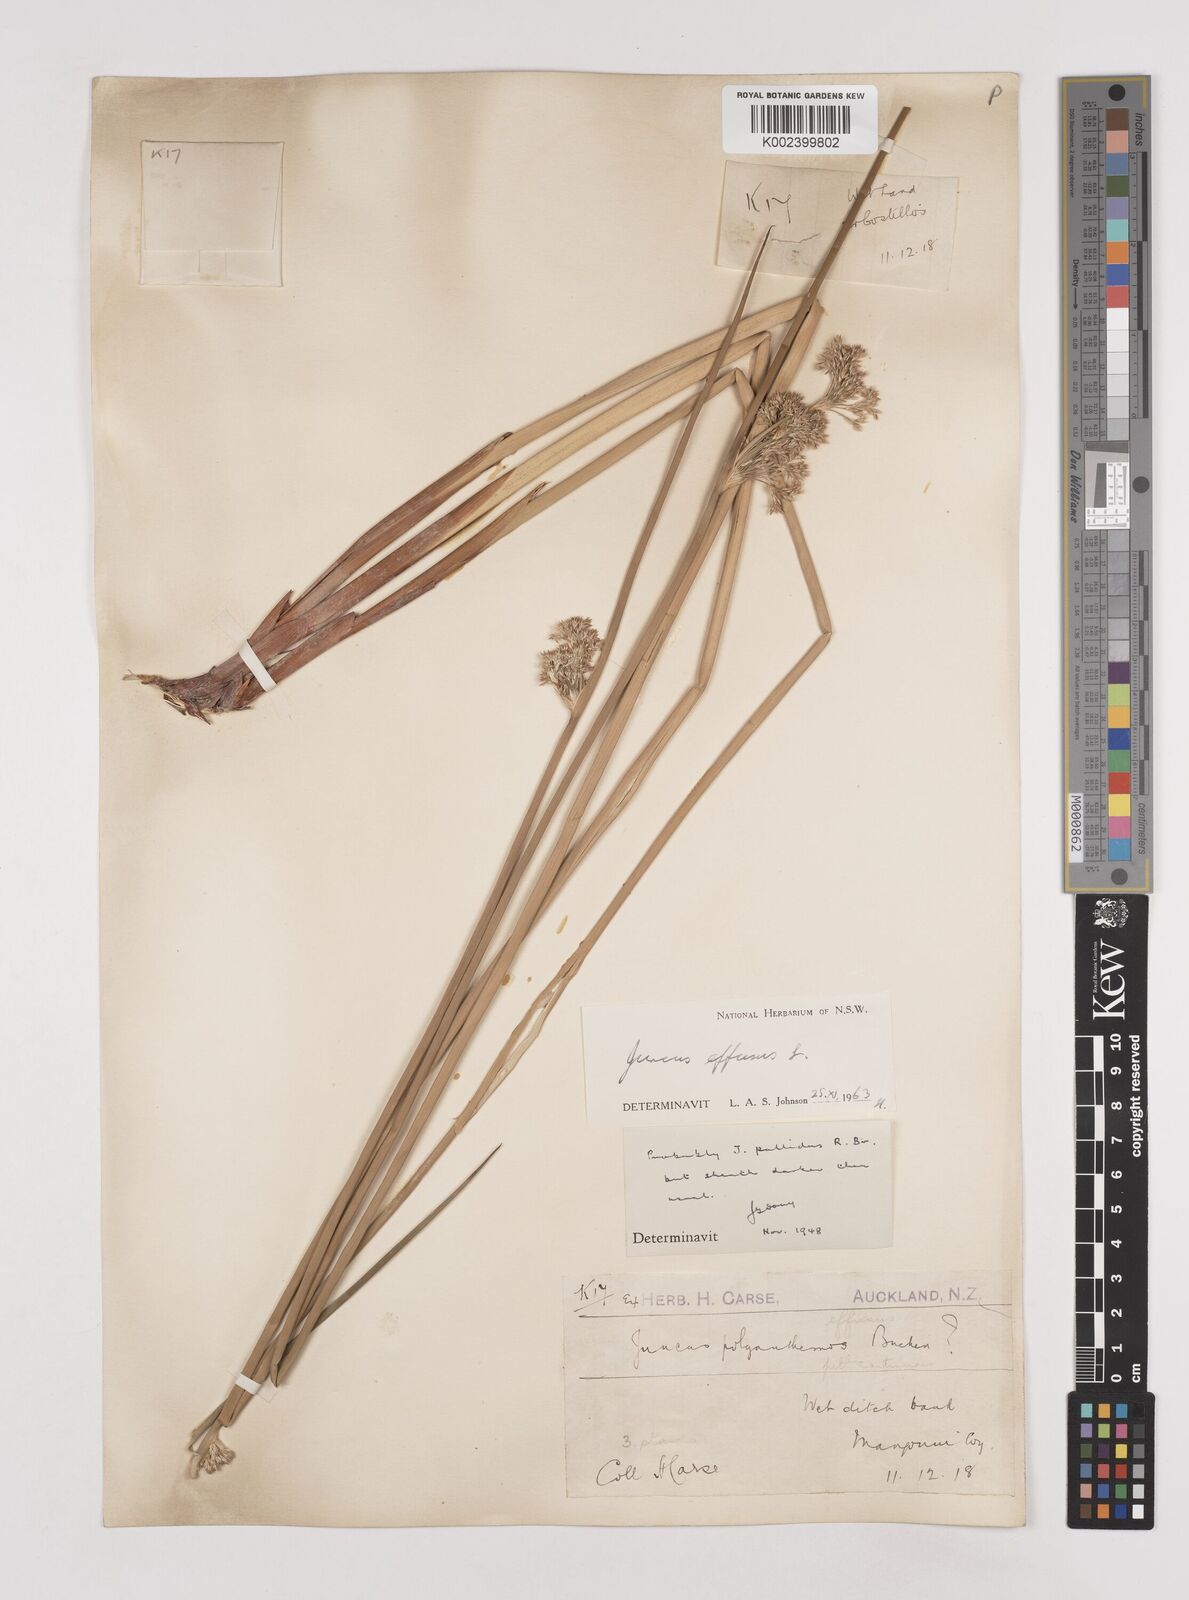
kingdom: Plantae
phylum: Tracheophyta
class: Liliopsida
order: Poales
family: Juncaceae
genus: Juncus
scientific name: Juncus effusus
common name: Soft rush
